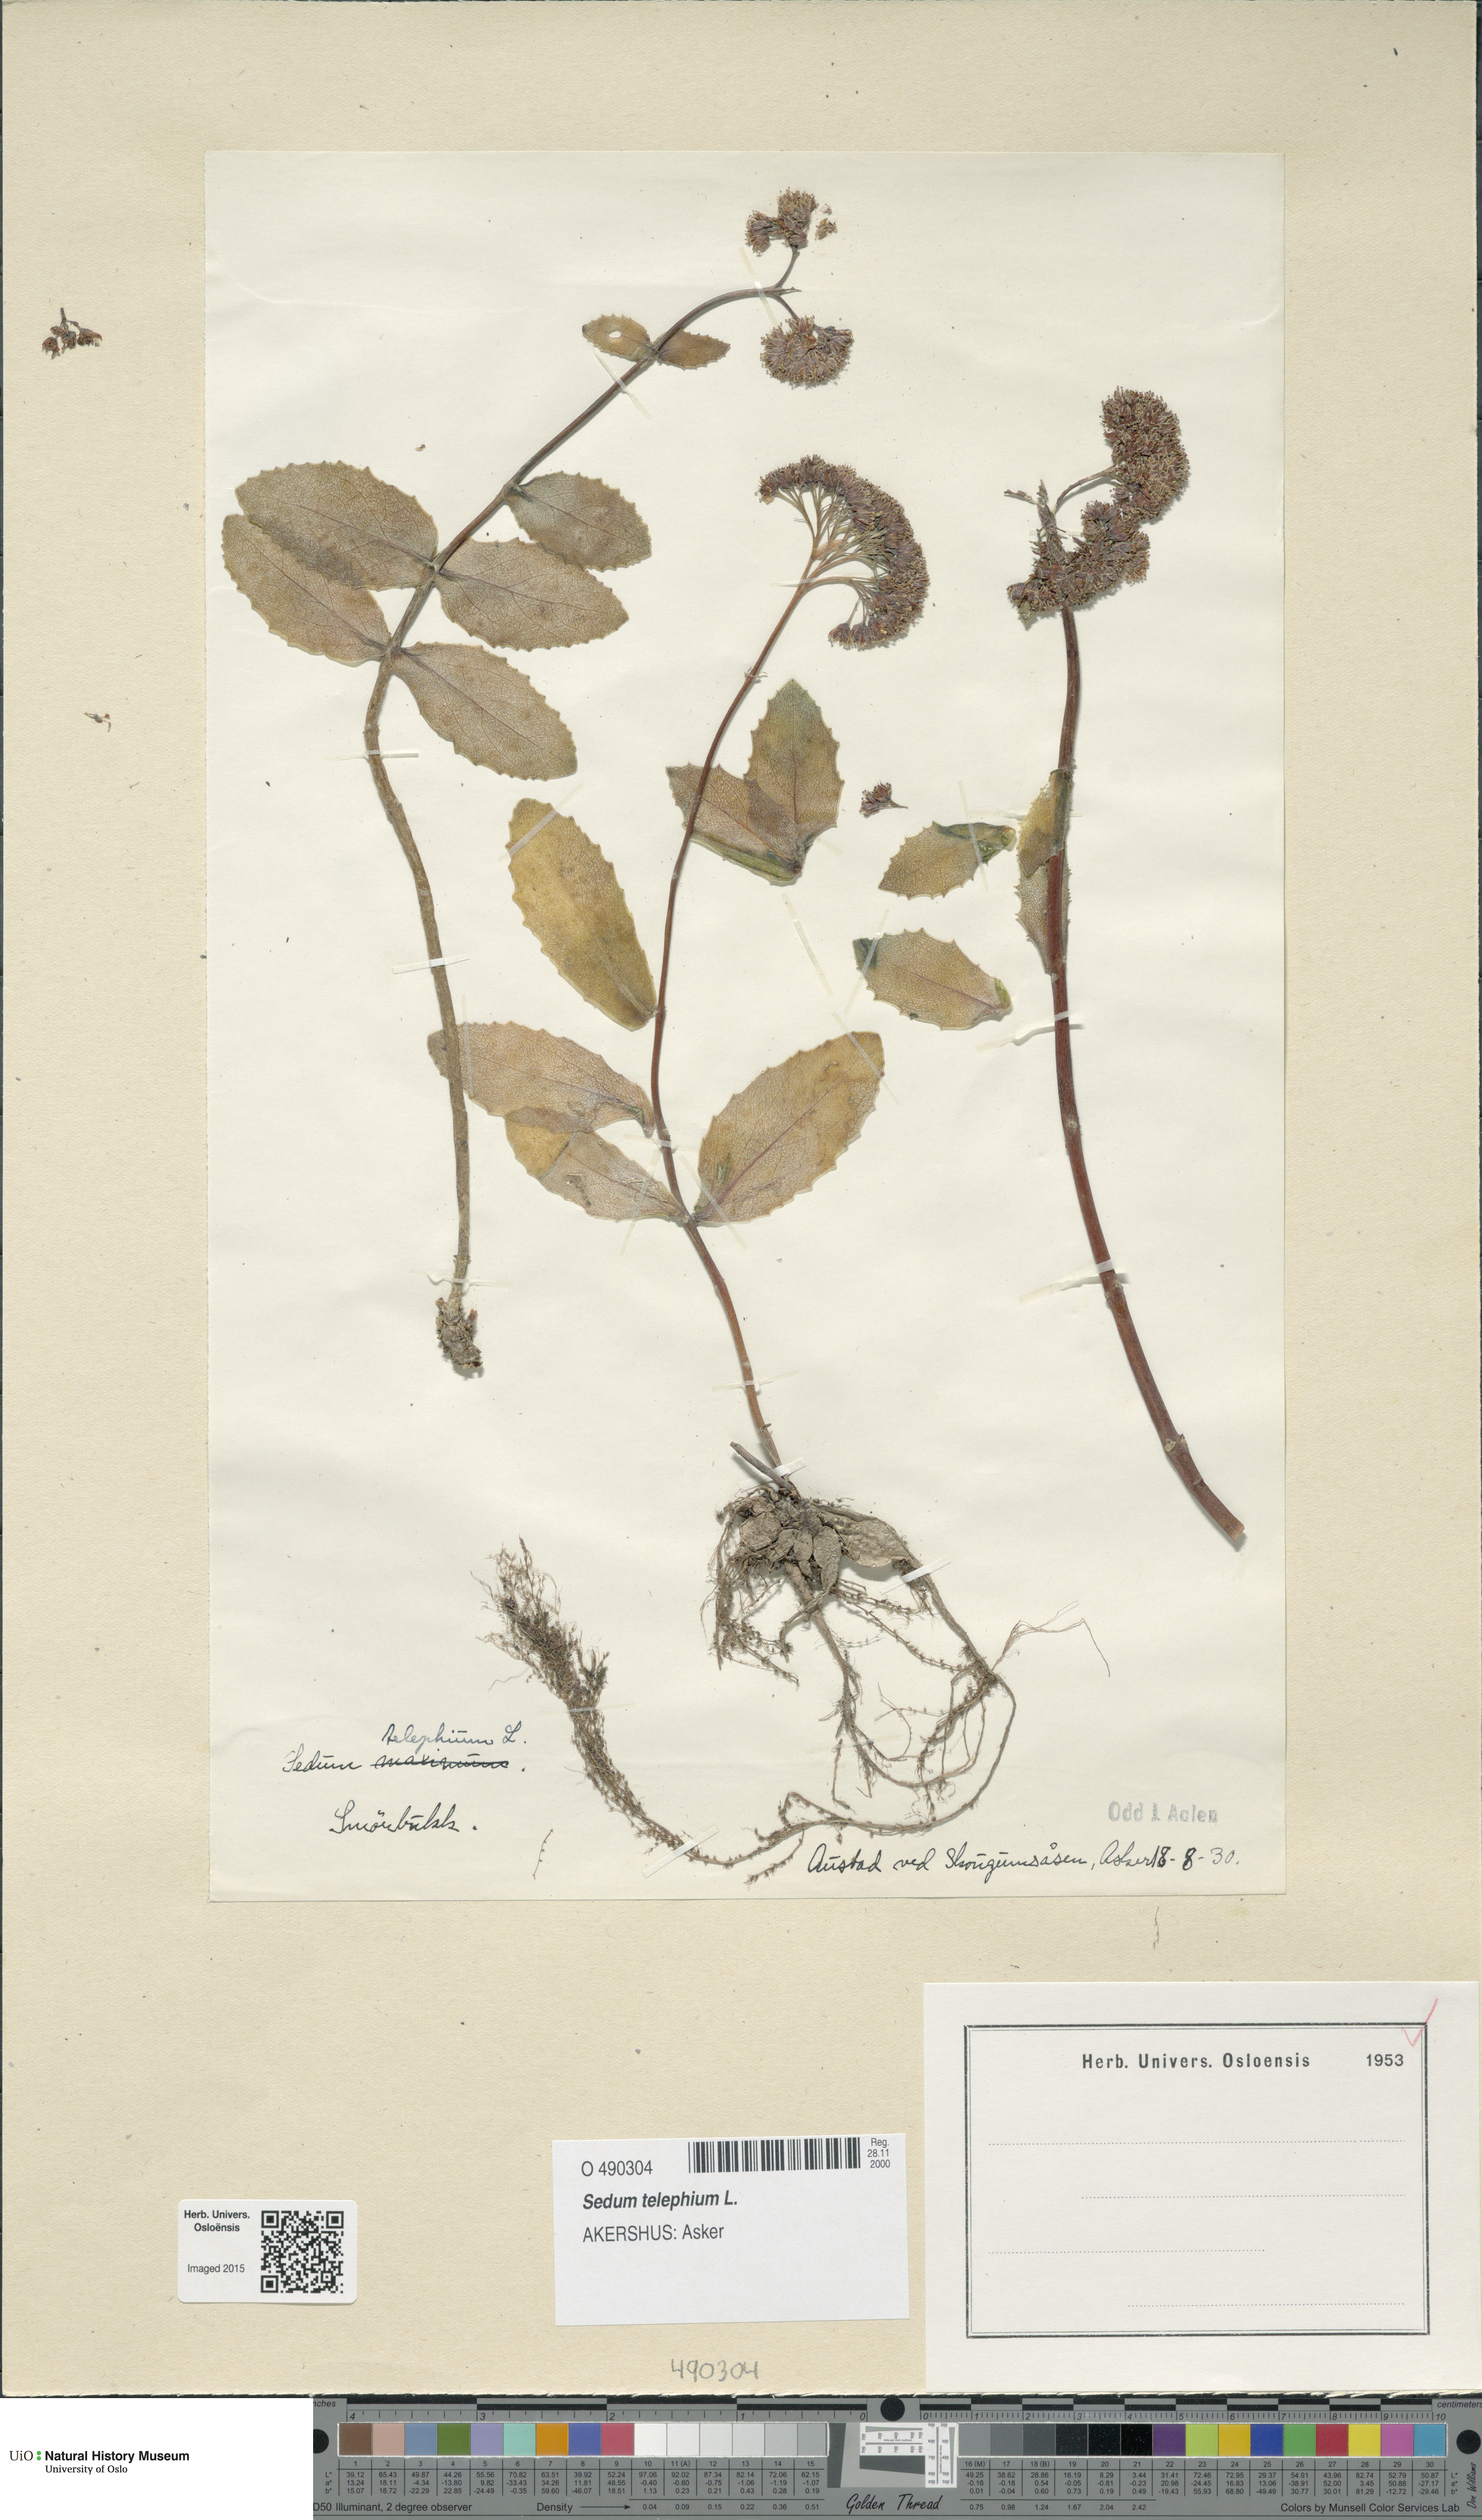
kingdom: Plantae
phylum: Tracheophyta
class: Magnoliopsida
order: Saxifragales
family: Crassulaceae
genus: Hylotelephium
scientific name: Hylotelephium telephium
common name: Live-forever
